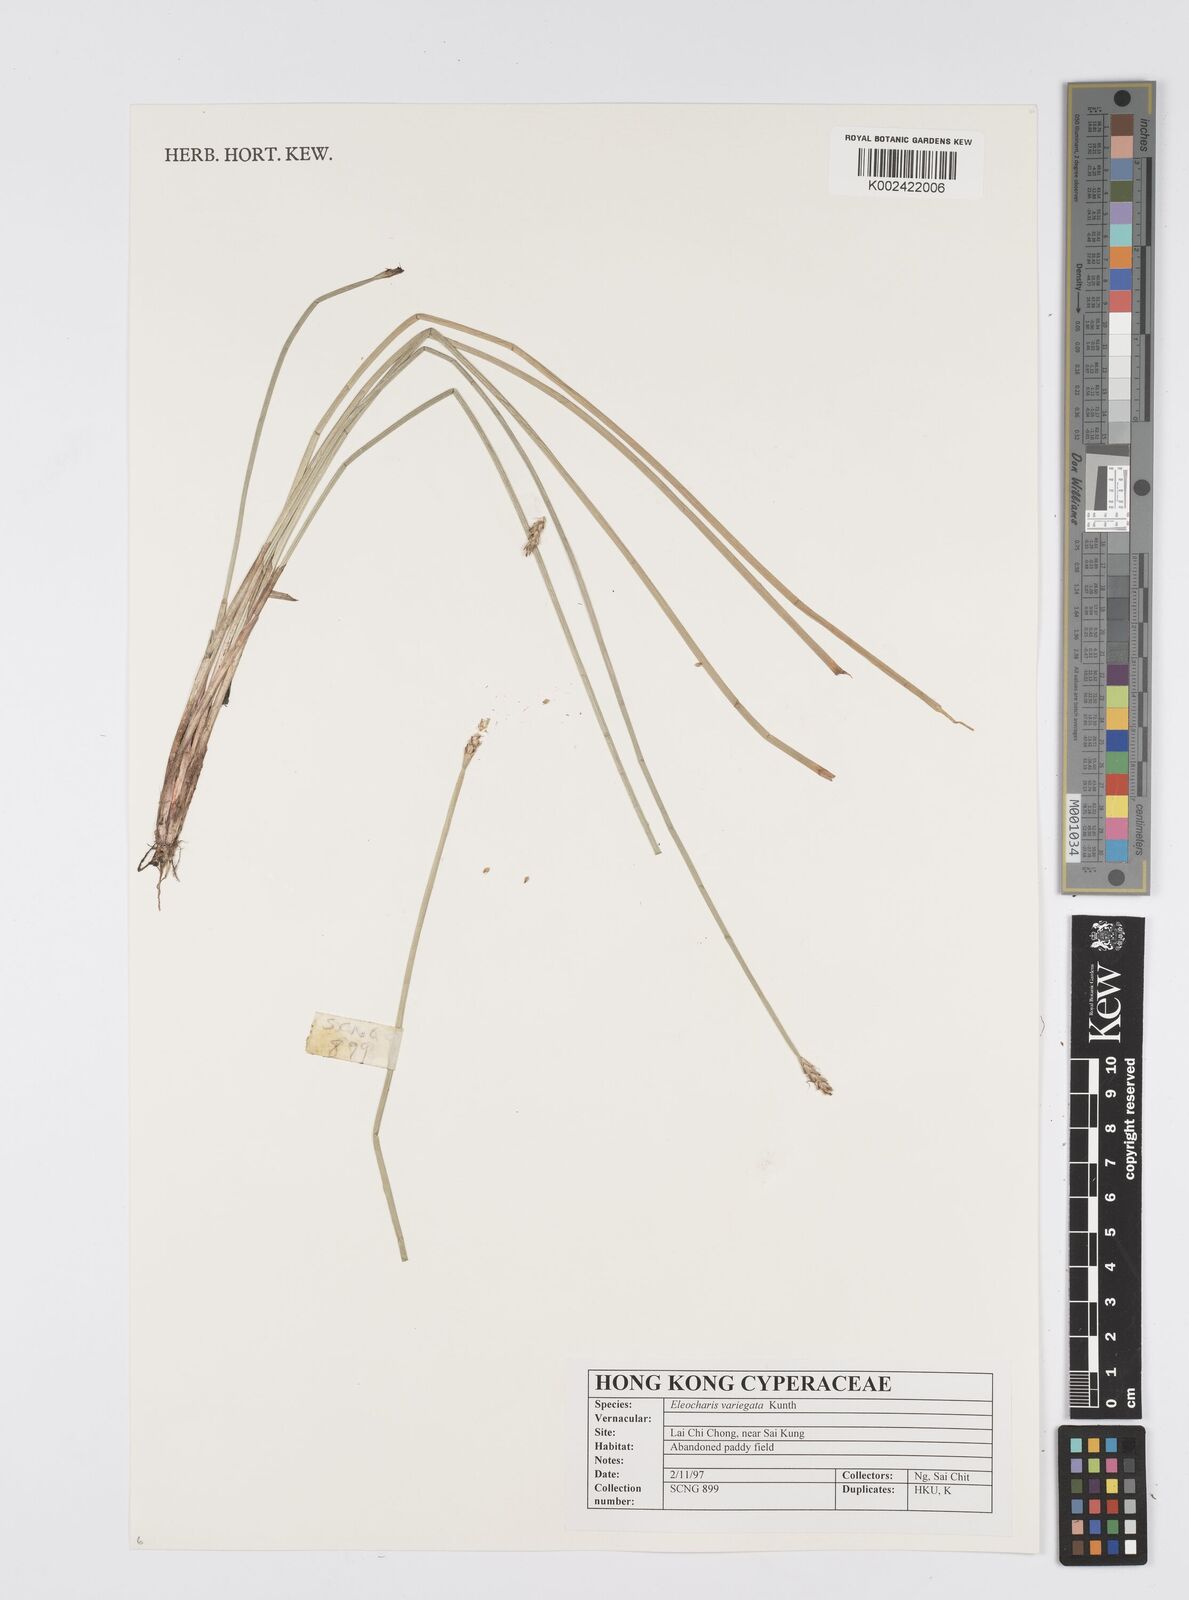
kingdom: Plantae
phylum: Tracheophyta
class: Liliopsida
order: Poales
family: Cyperaceae
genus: Eleocharis
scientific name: Eleocharis variegata
